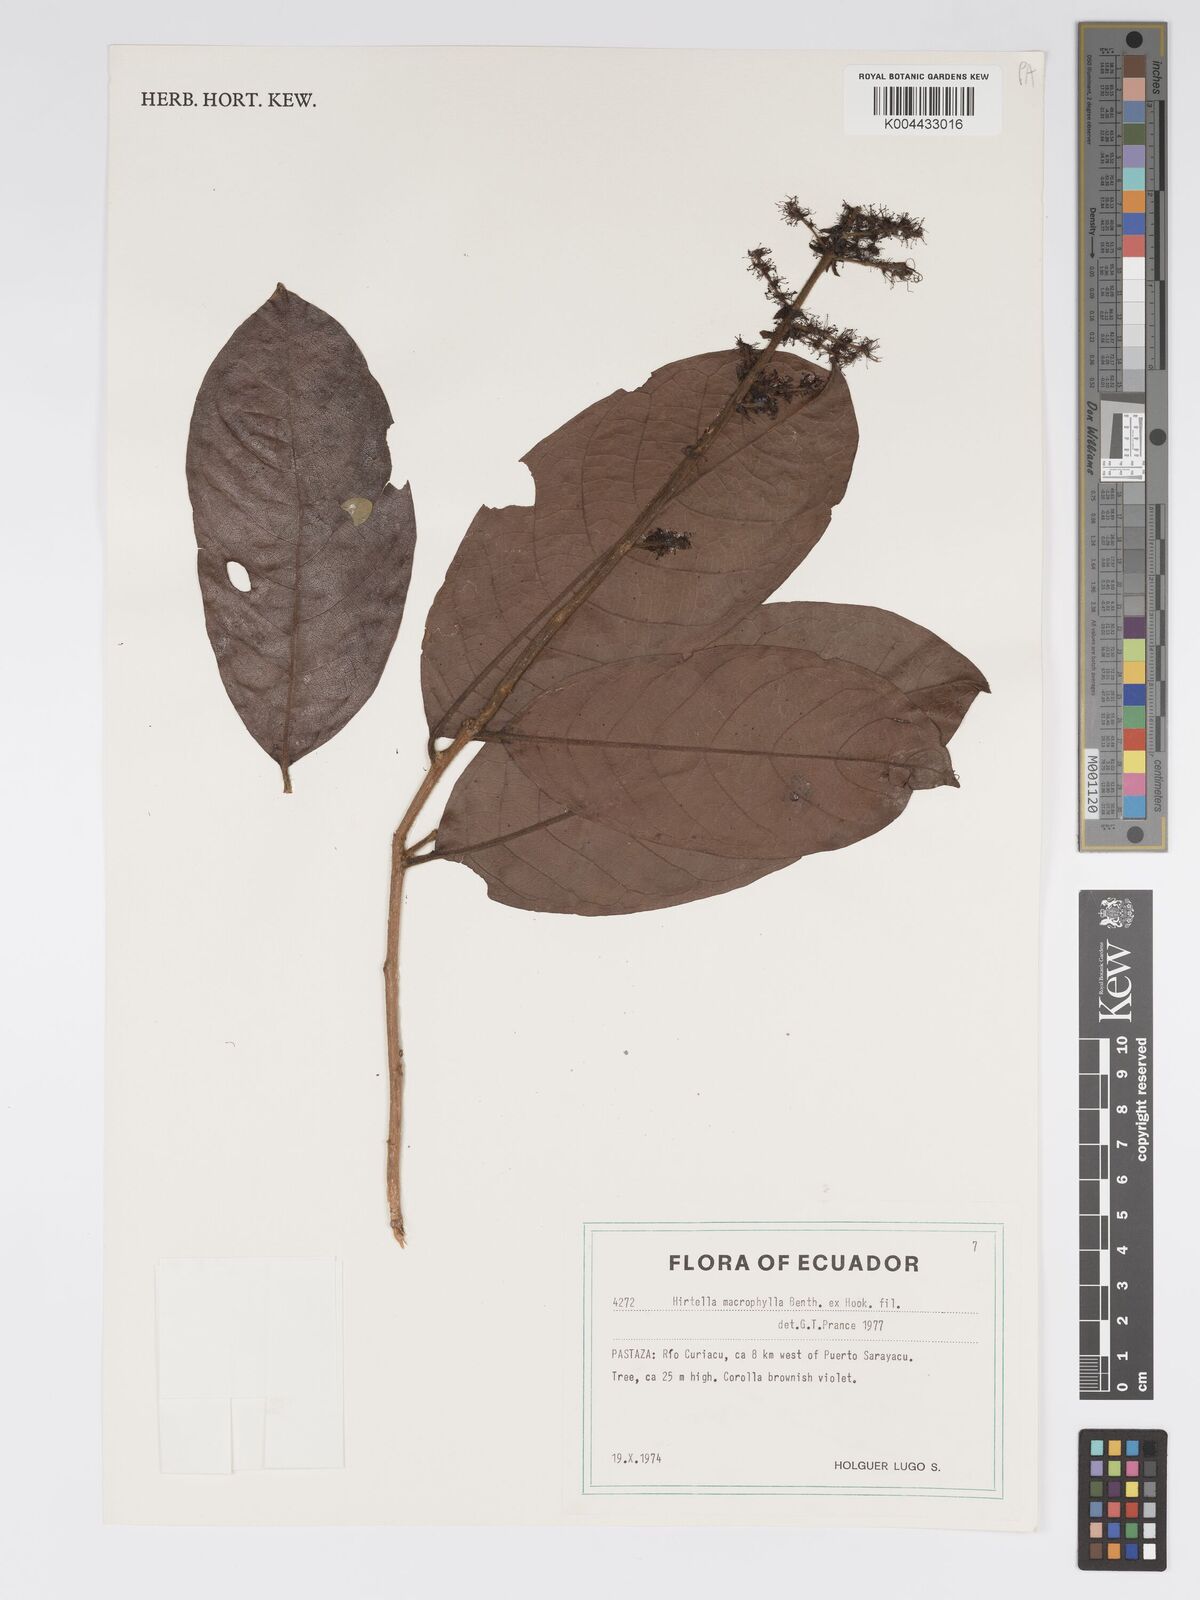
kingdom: Plantae
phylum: Tracheophyta
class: Magnoliopsida
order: Malpighiales
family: Chrysobalanaceae
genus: Hirtella
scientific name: Hirtella macrophylla
